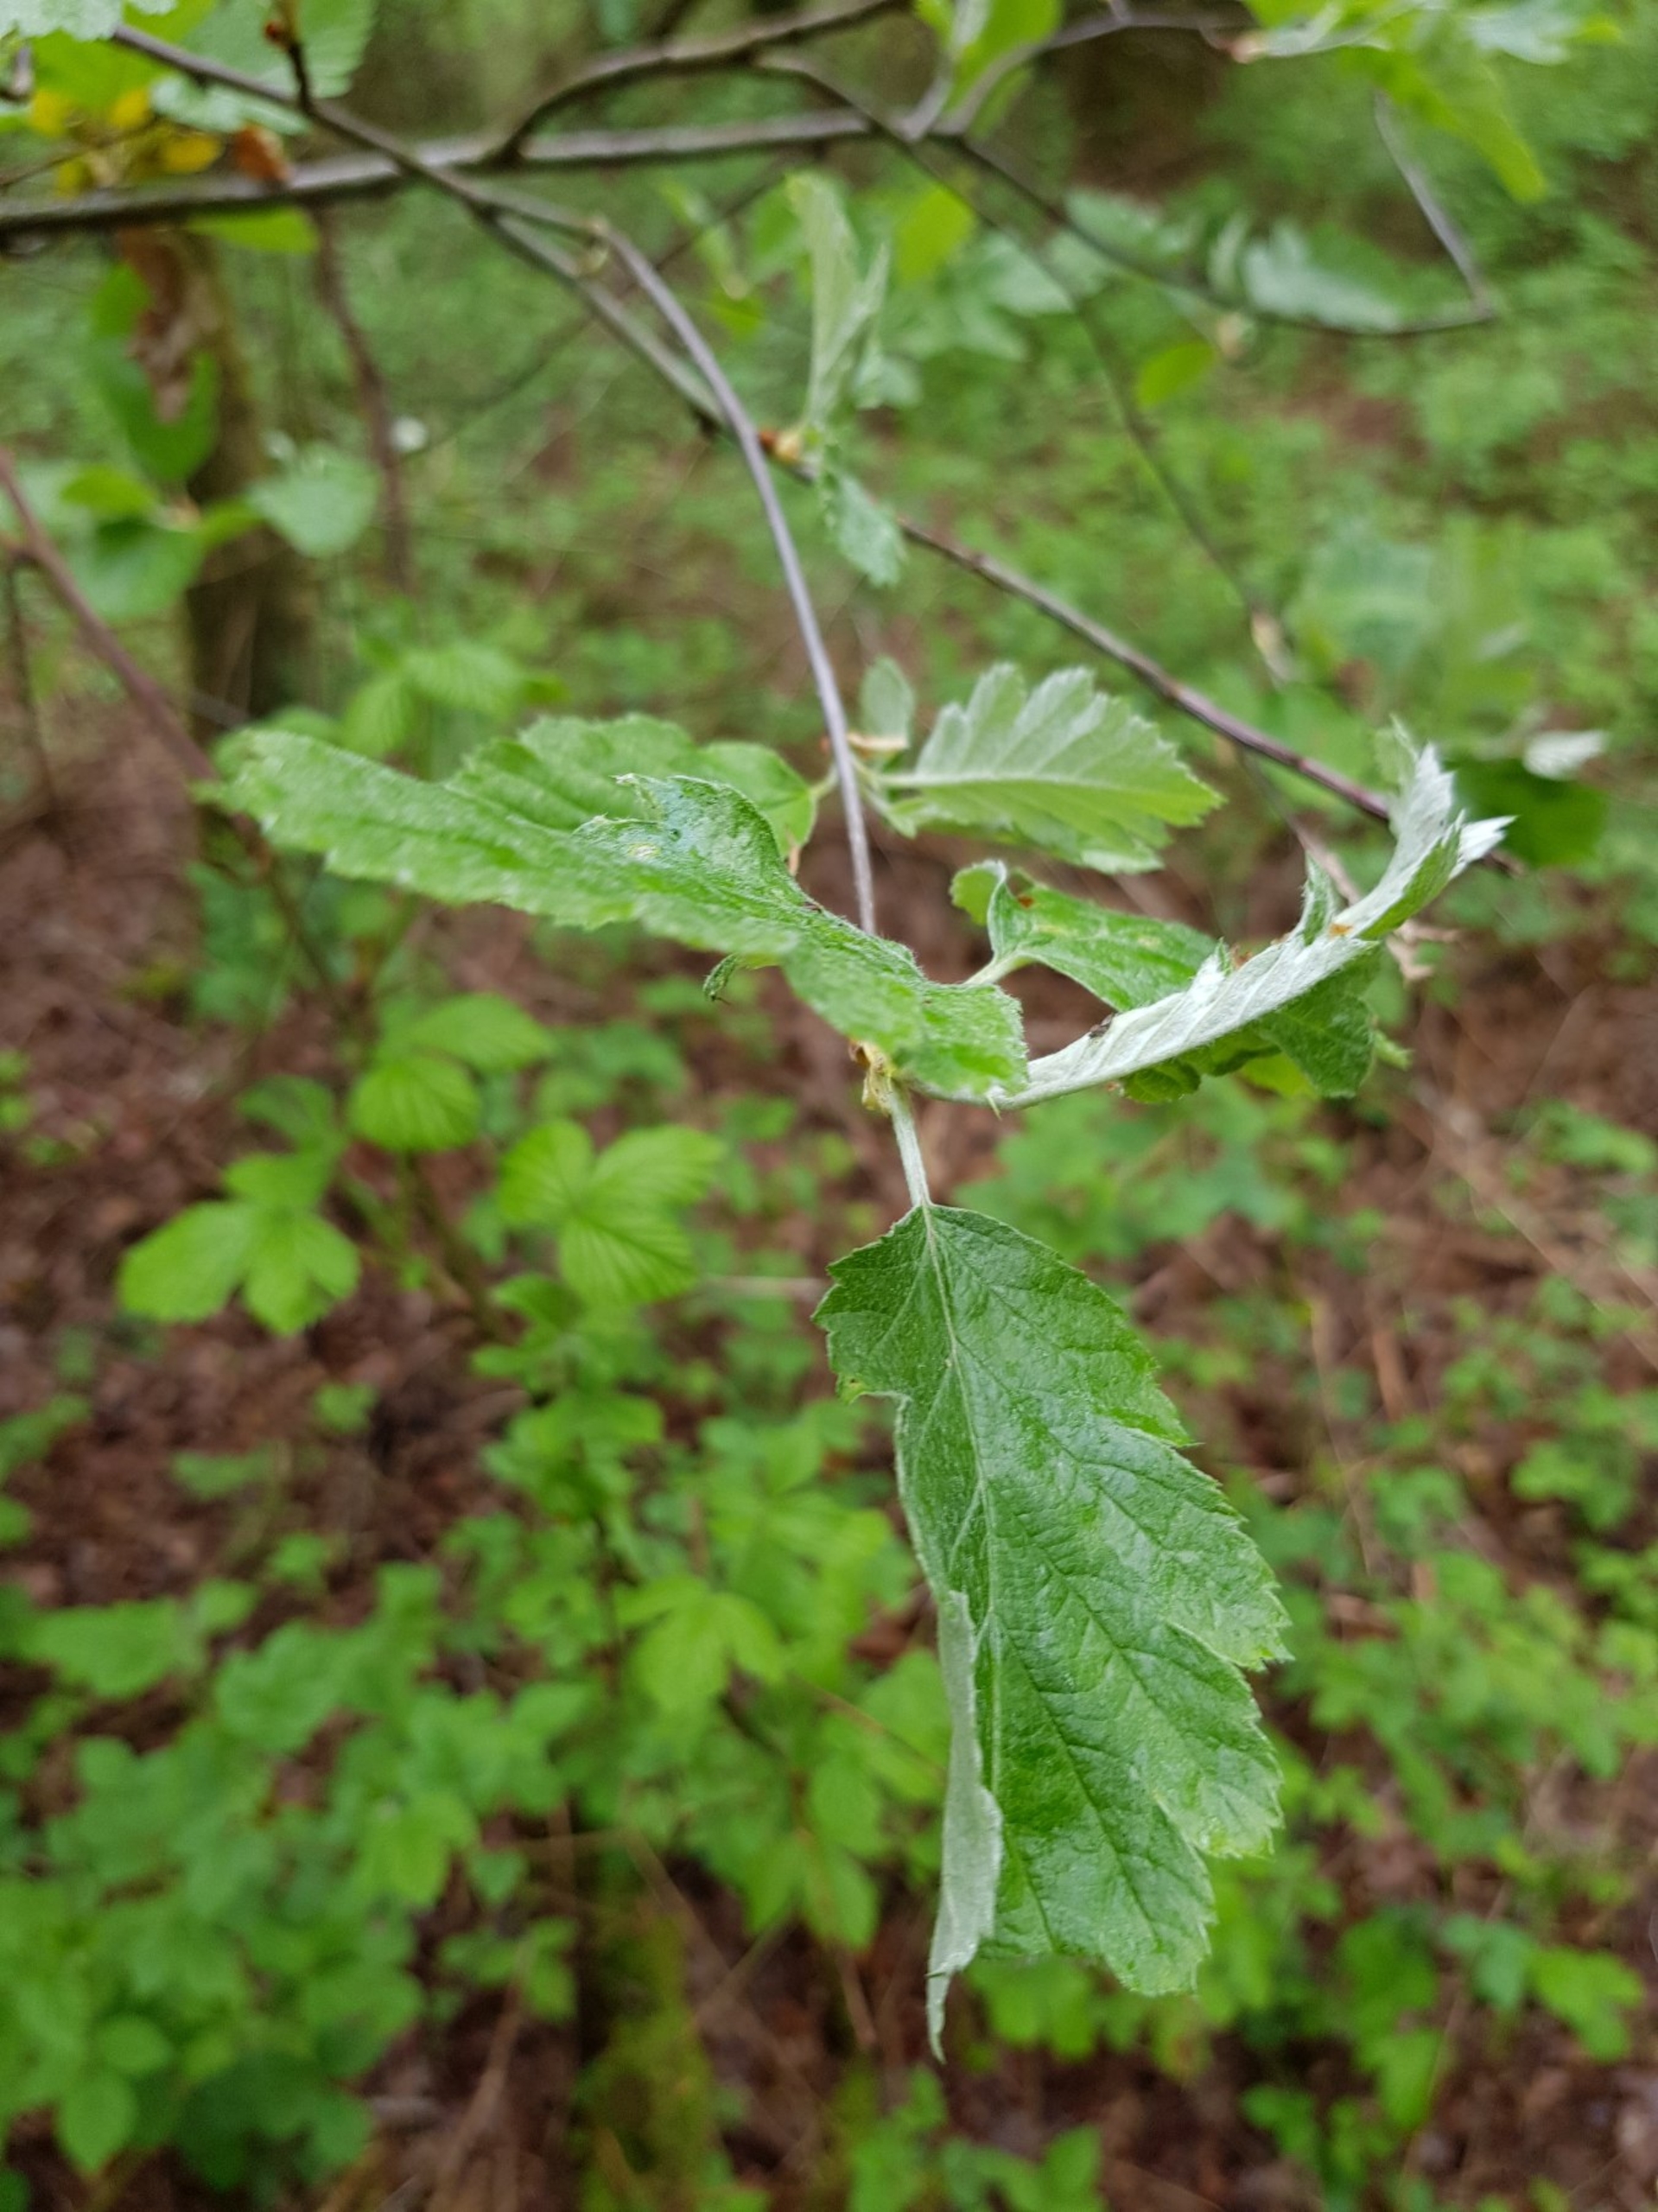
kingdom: Plantae
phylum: Tracheophyta
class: Magnoliopsida
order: Rosales
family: Rosaceae
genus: Scandosorbus
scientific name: Scandosorbus intermedia
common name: Selje-røn
